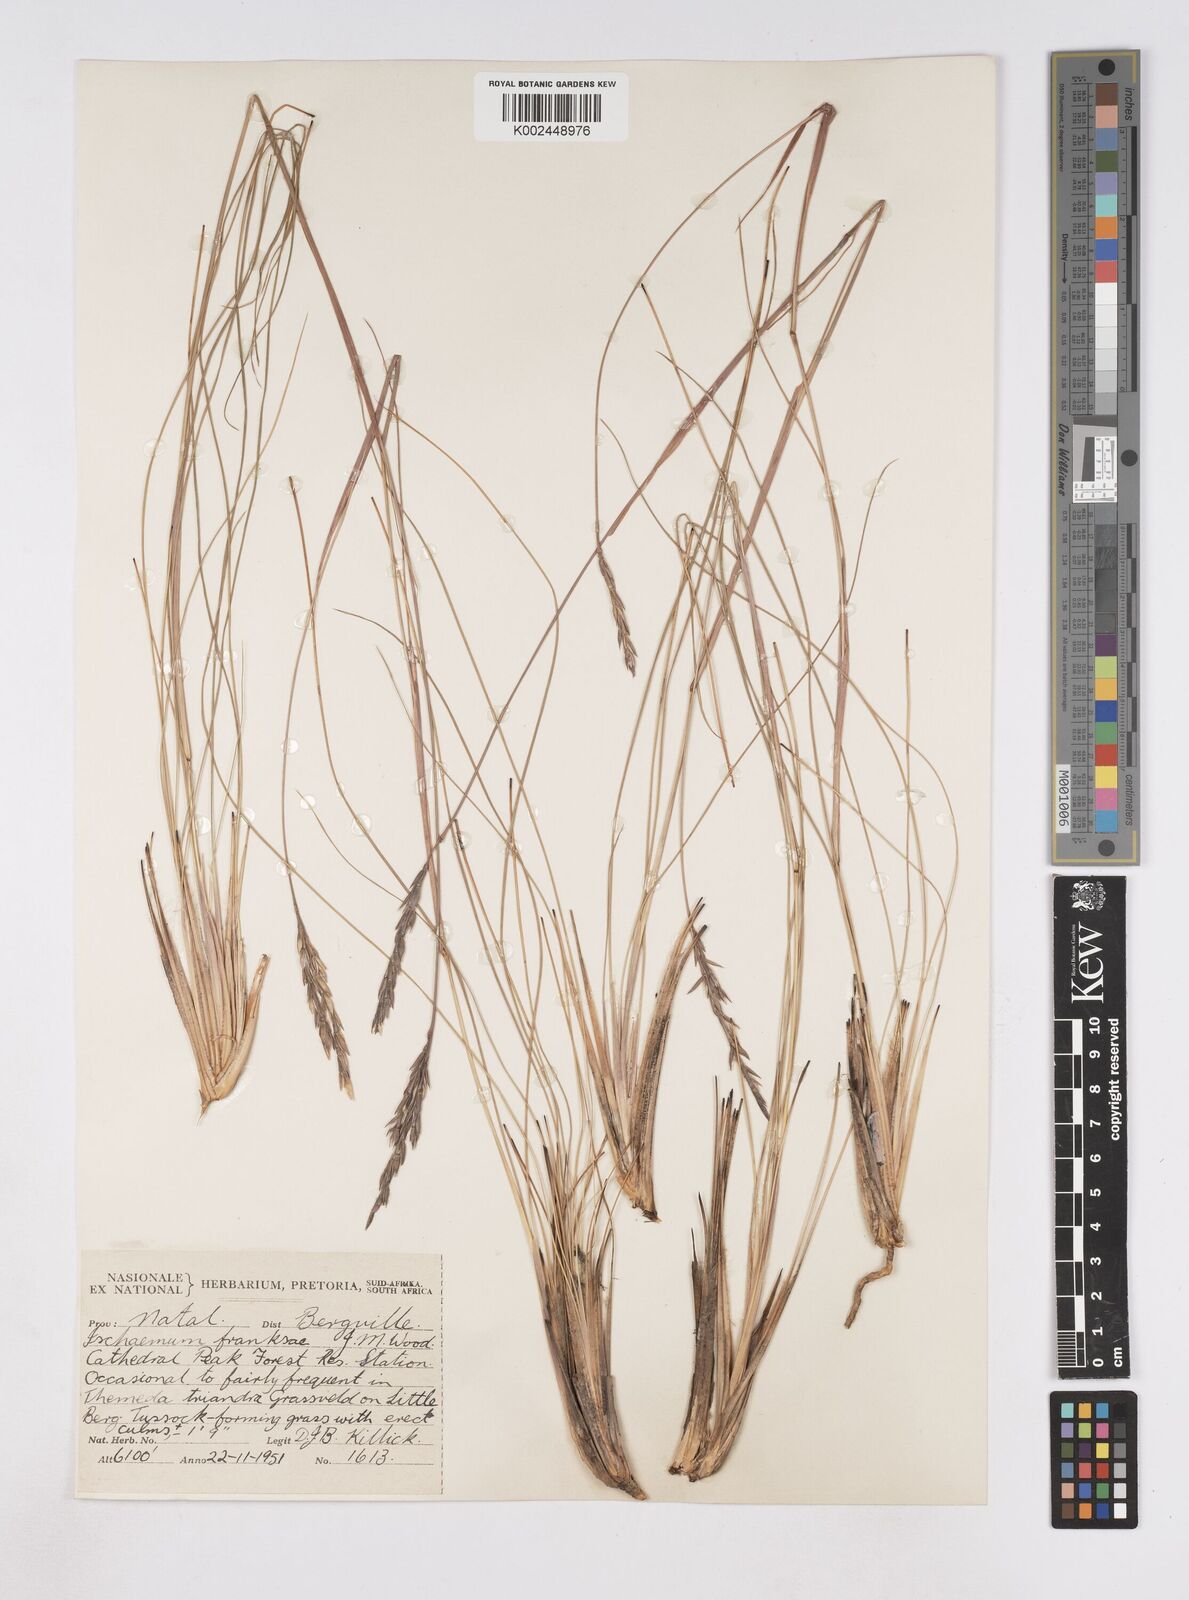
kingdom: Plantae
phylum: Tracheophyta
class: Liliopsida
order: Poales
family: Poaceae
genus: Phacelurus
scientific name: Phacelurus franksiae
